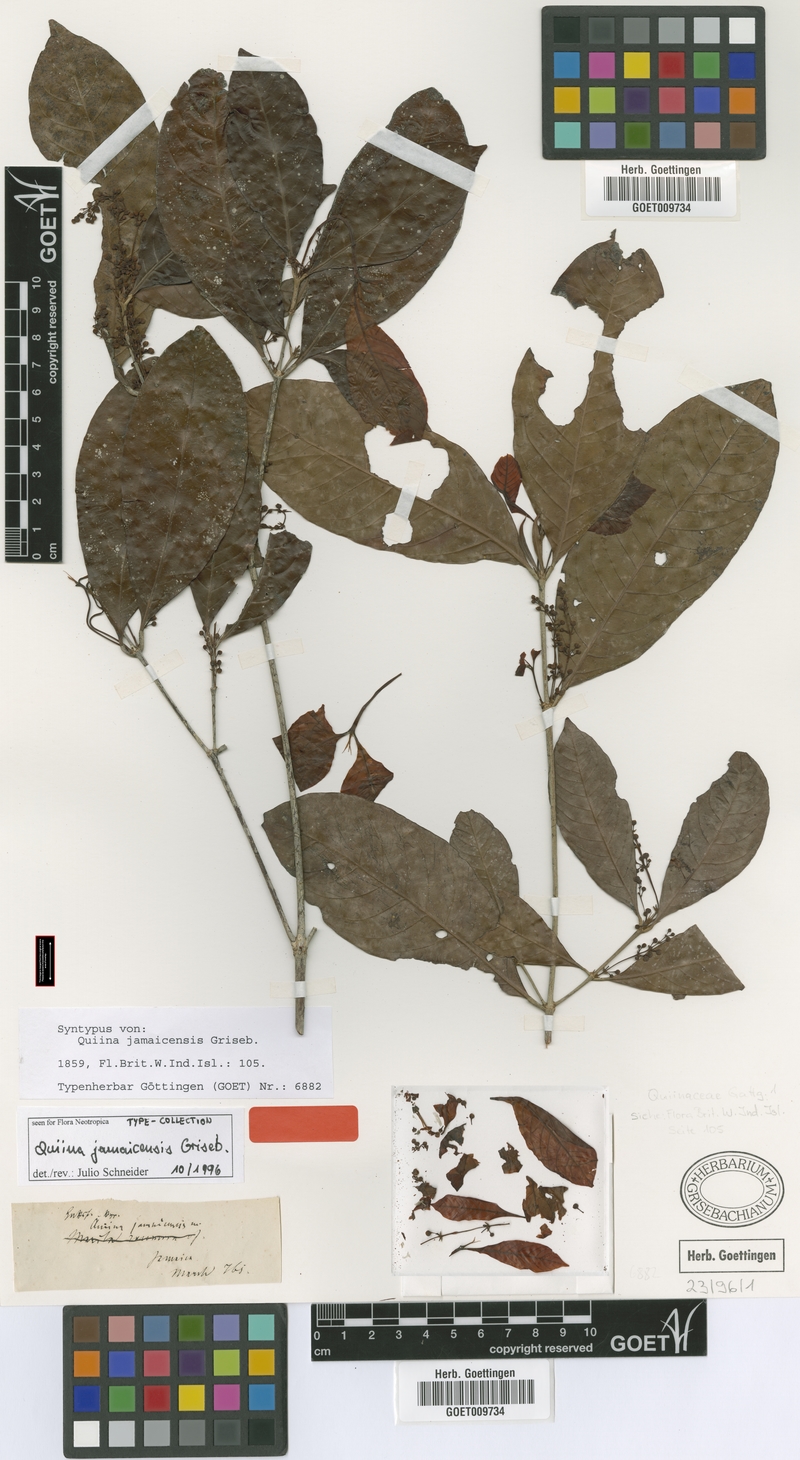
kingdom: Plantae
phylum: Tracheophyta
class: Magnoliopsida
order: Malpighiales
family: Quiinaceae
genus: Quiina
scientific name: Quiina jamaicensis
